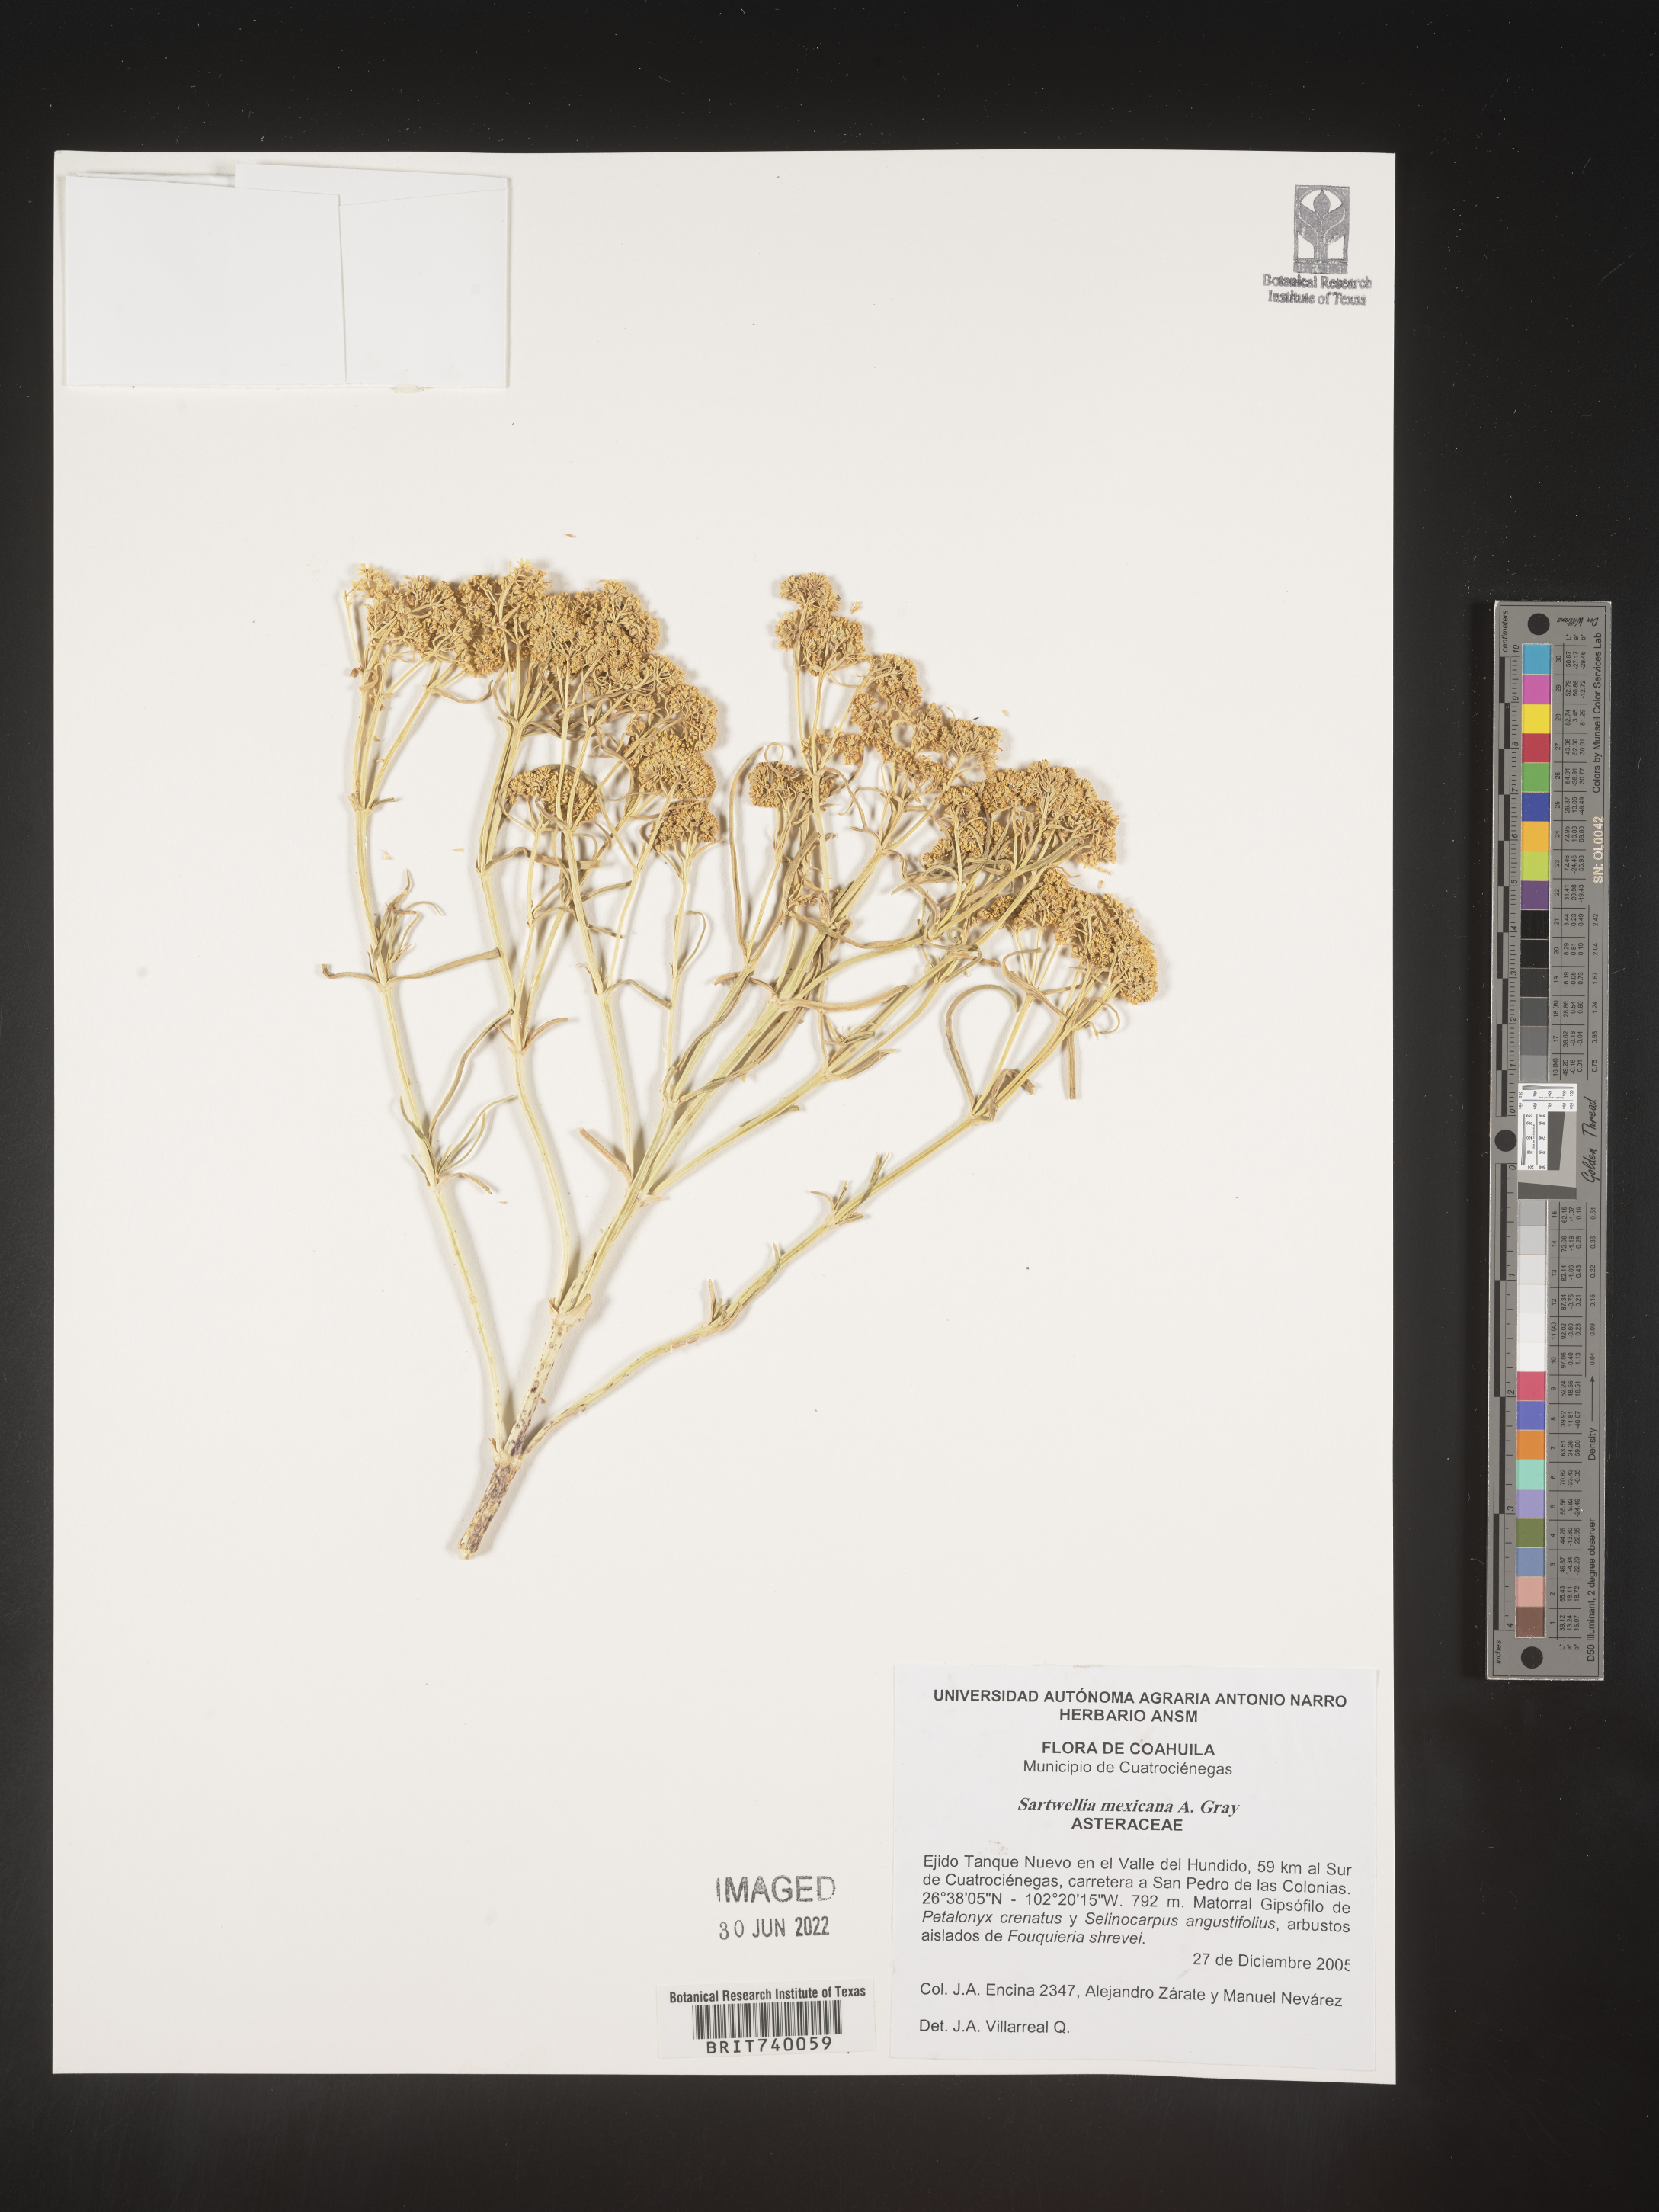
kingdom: Plantae
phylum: Tracheophyta
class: Magnoliopsida
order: Asterales
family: Asteraceae
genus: Sartwellia
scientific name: Sartwellia
